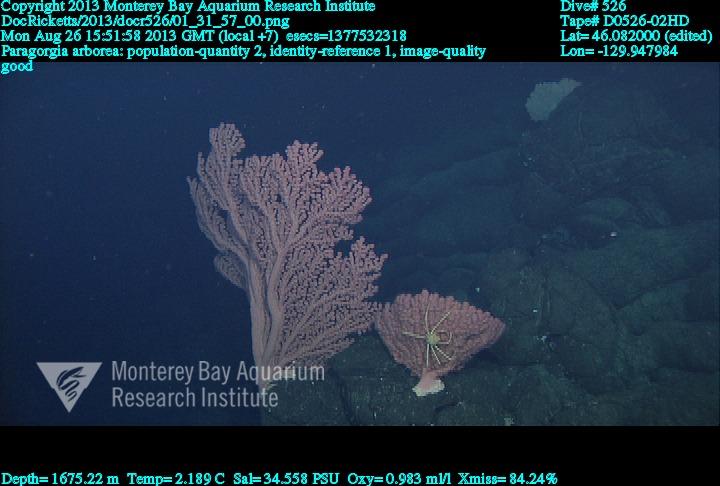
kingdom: Animalia
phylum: Cnidaria
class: Anthozoa
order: Scleralcyonacea
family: Coralliidae
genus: Paragorgia
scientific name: Paragorgia arborea
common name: Bubble gum coral
